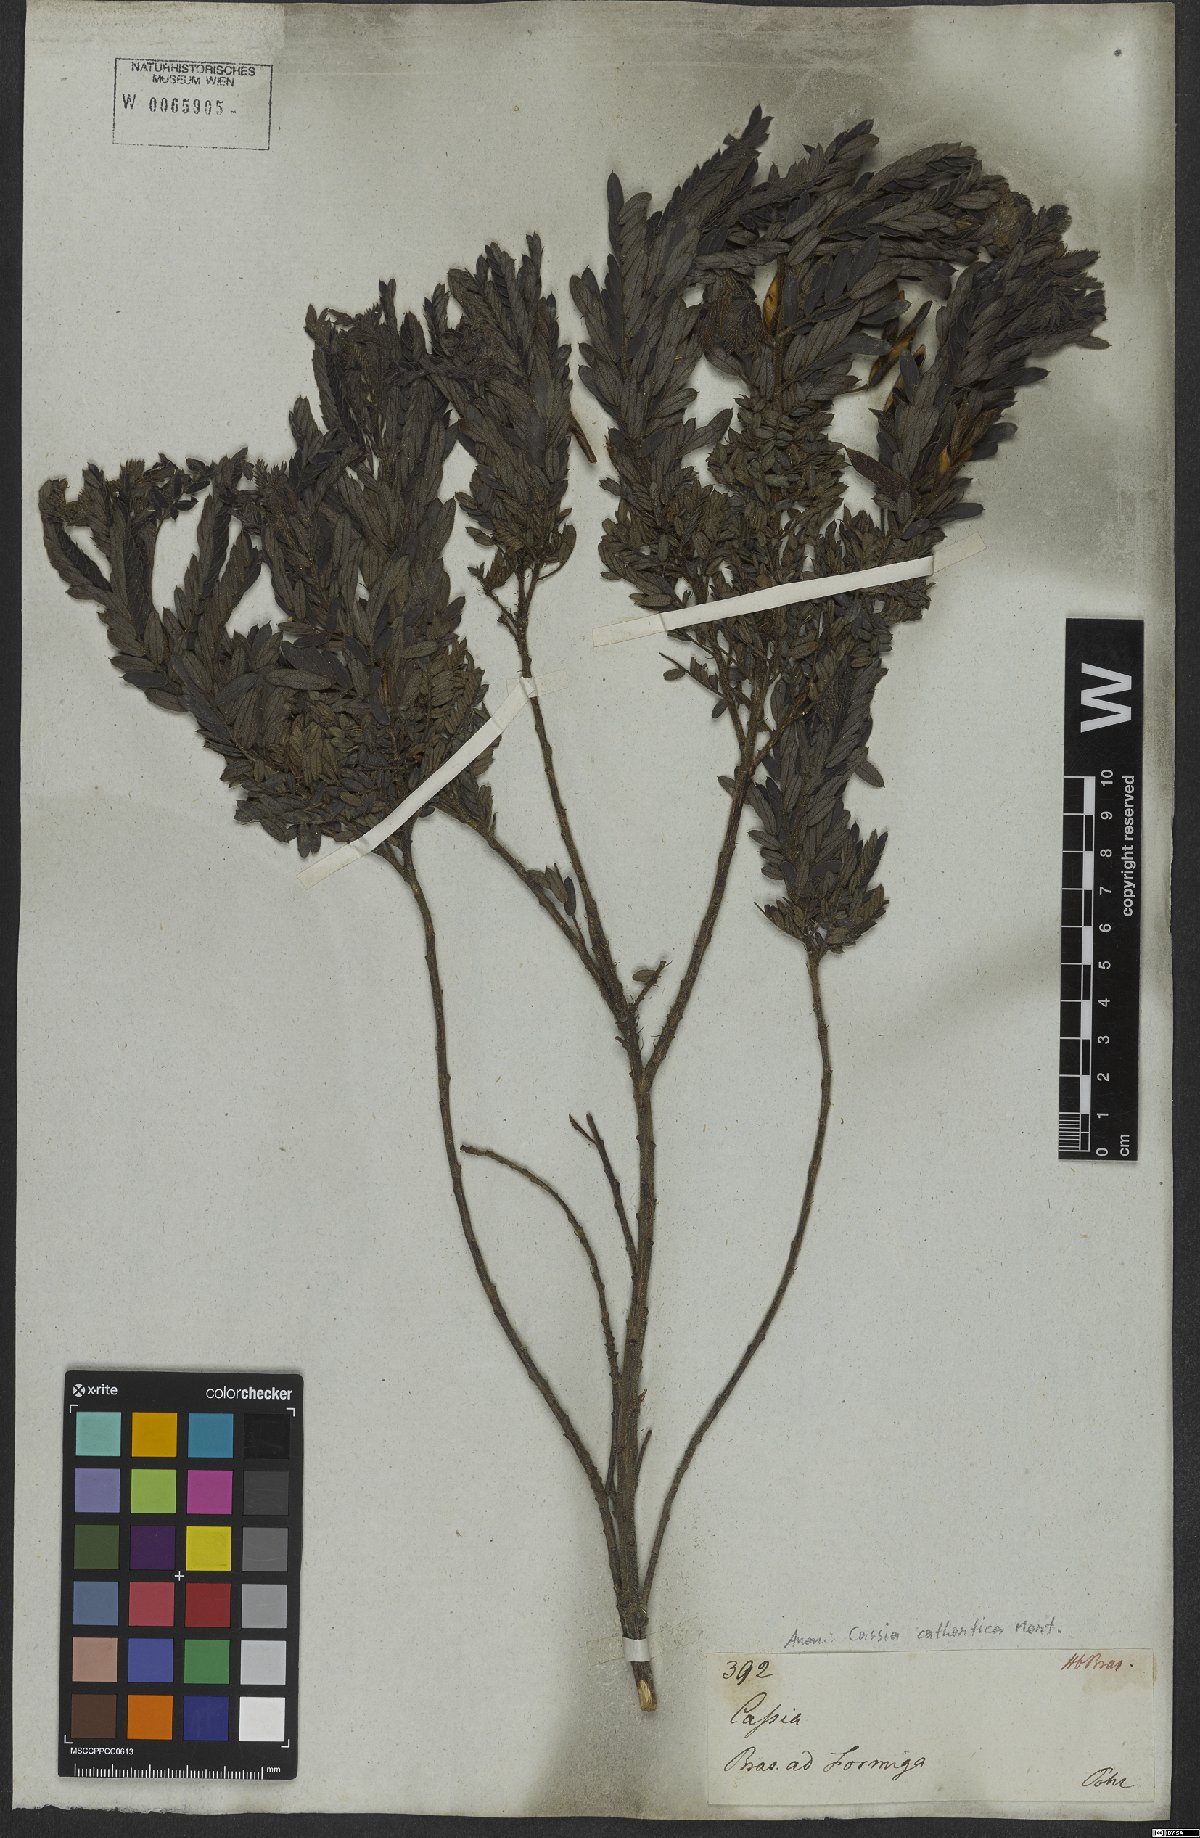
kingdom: Plantae
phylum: Tracheophyta
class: Magnoliopsida
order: Fabales
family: Fabaceae
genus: Chamaecrista
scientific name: Chamaecrista cathartica
